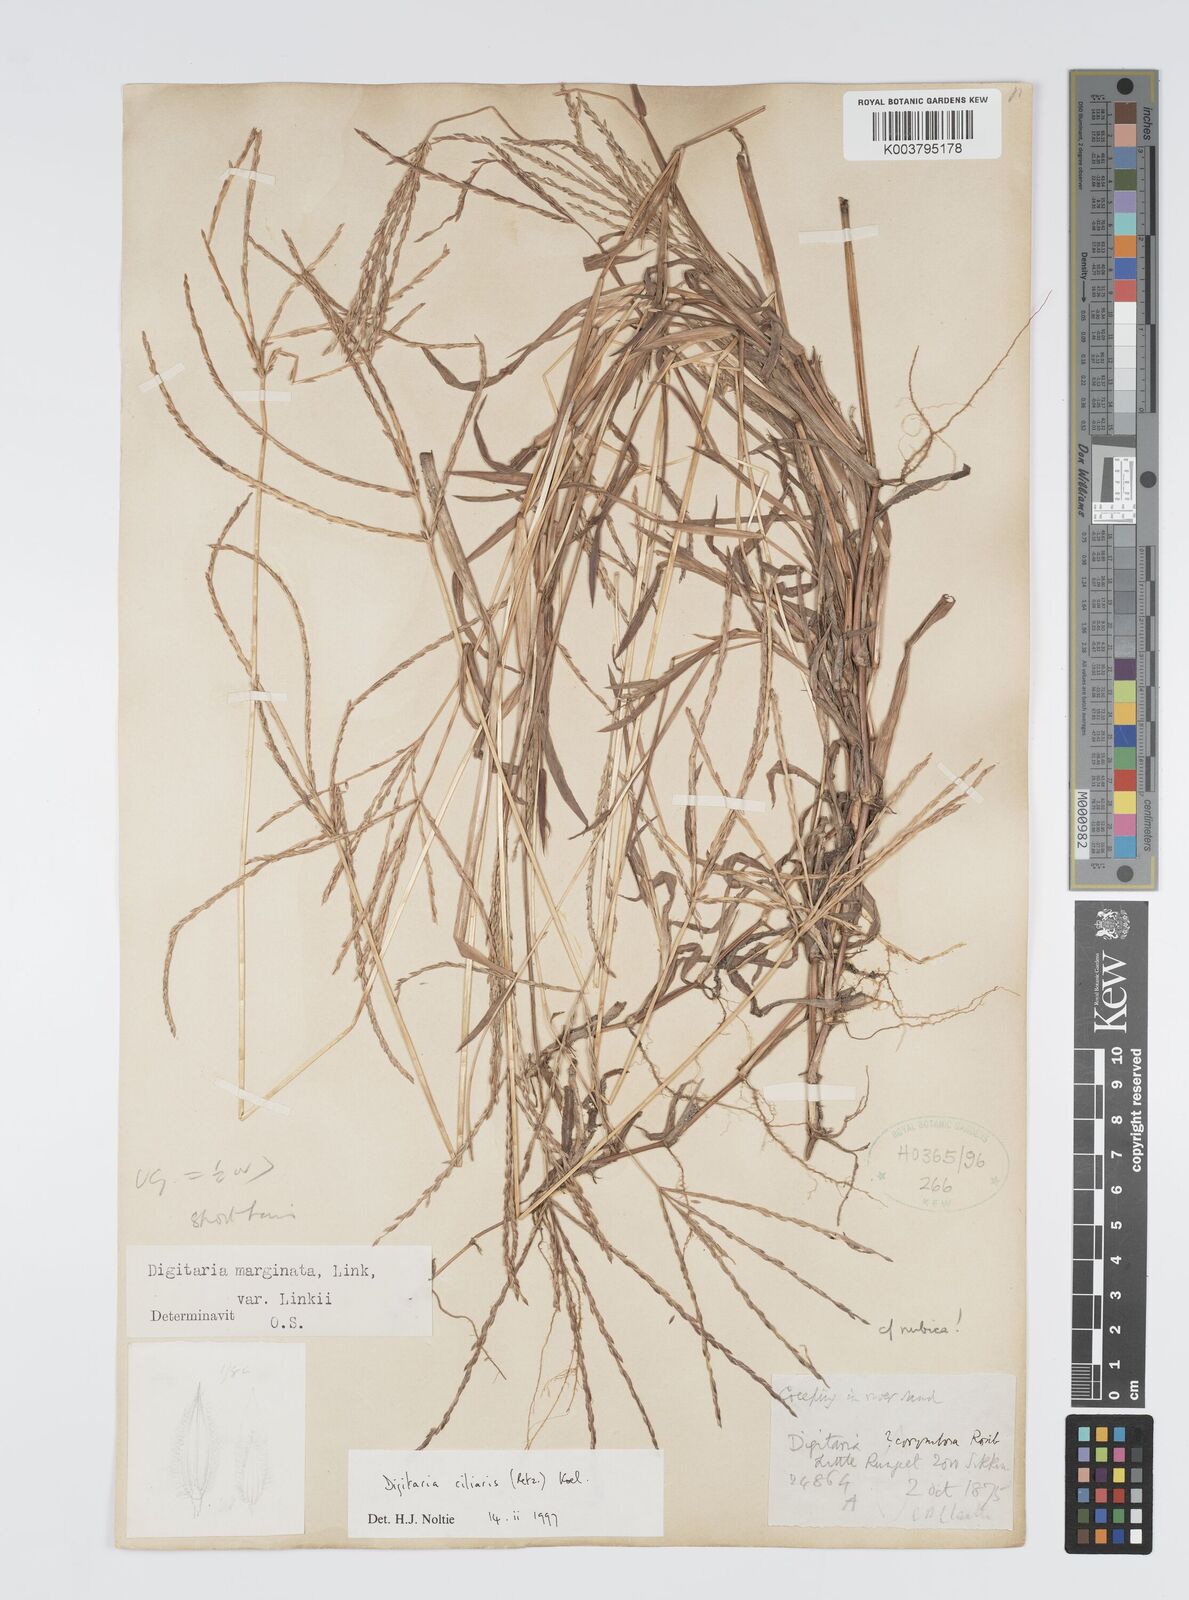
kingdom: Plantae
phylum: Tracheophyta
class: Liliopsida
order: Poales
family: Poaceae
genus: Digitaria
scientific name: Digitaria ciliaris
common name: Tropical finger-grass
